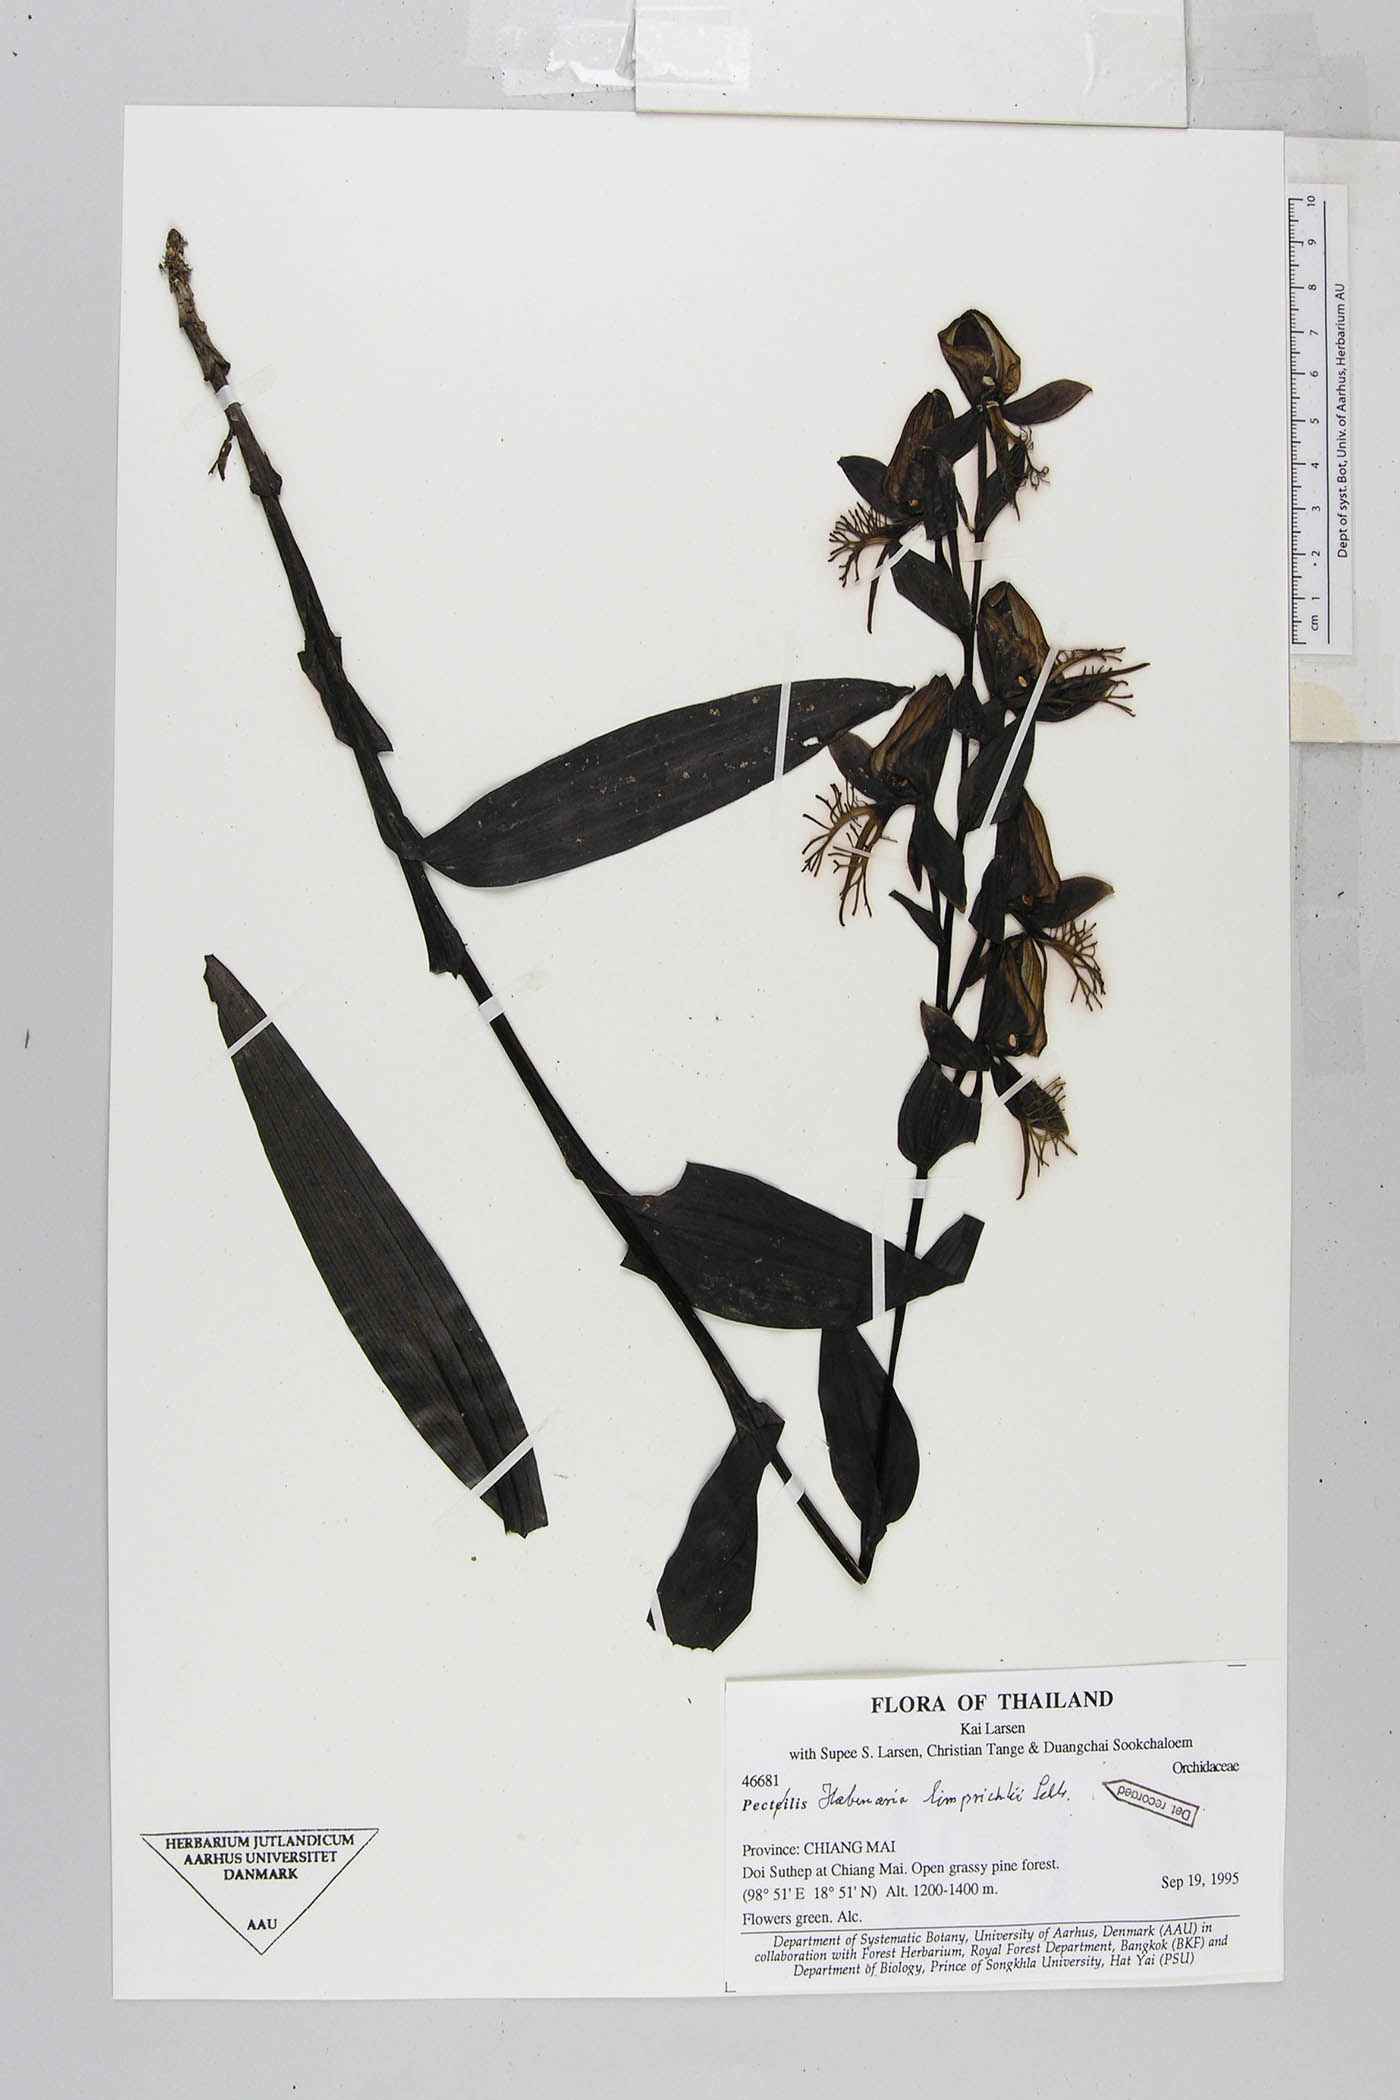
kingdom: Plantae
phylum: Tracheophyta
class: Liliopsida
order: Asparagales
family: Orchidaceae
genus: Habenaria
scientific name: Habenaria limprichtii
